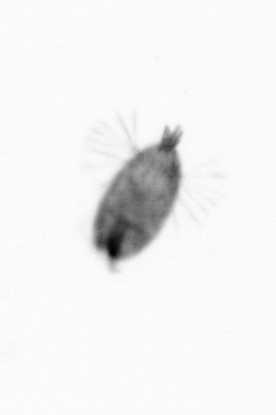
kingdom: Animalia
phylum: Arthropoda
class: Maxillopoda
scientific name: Maxillopoda
